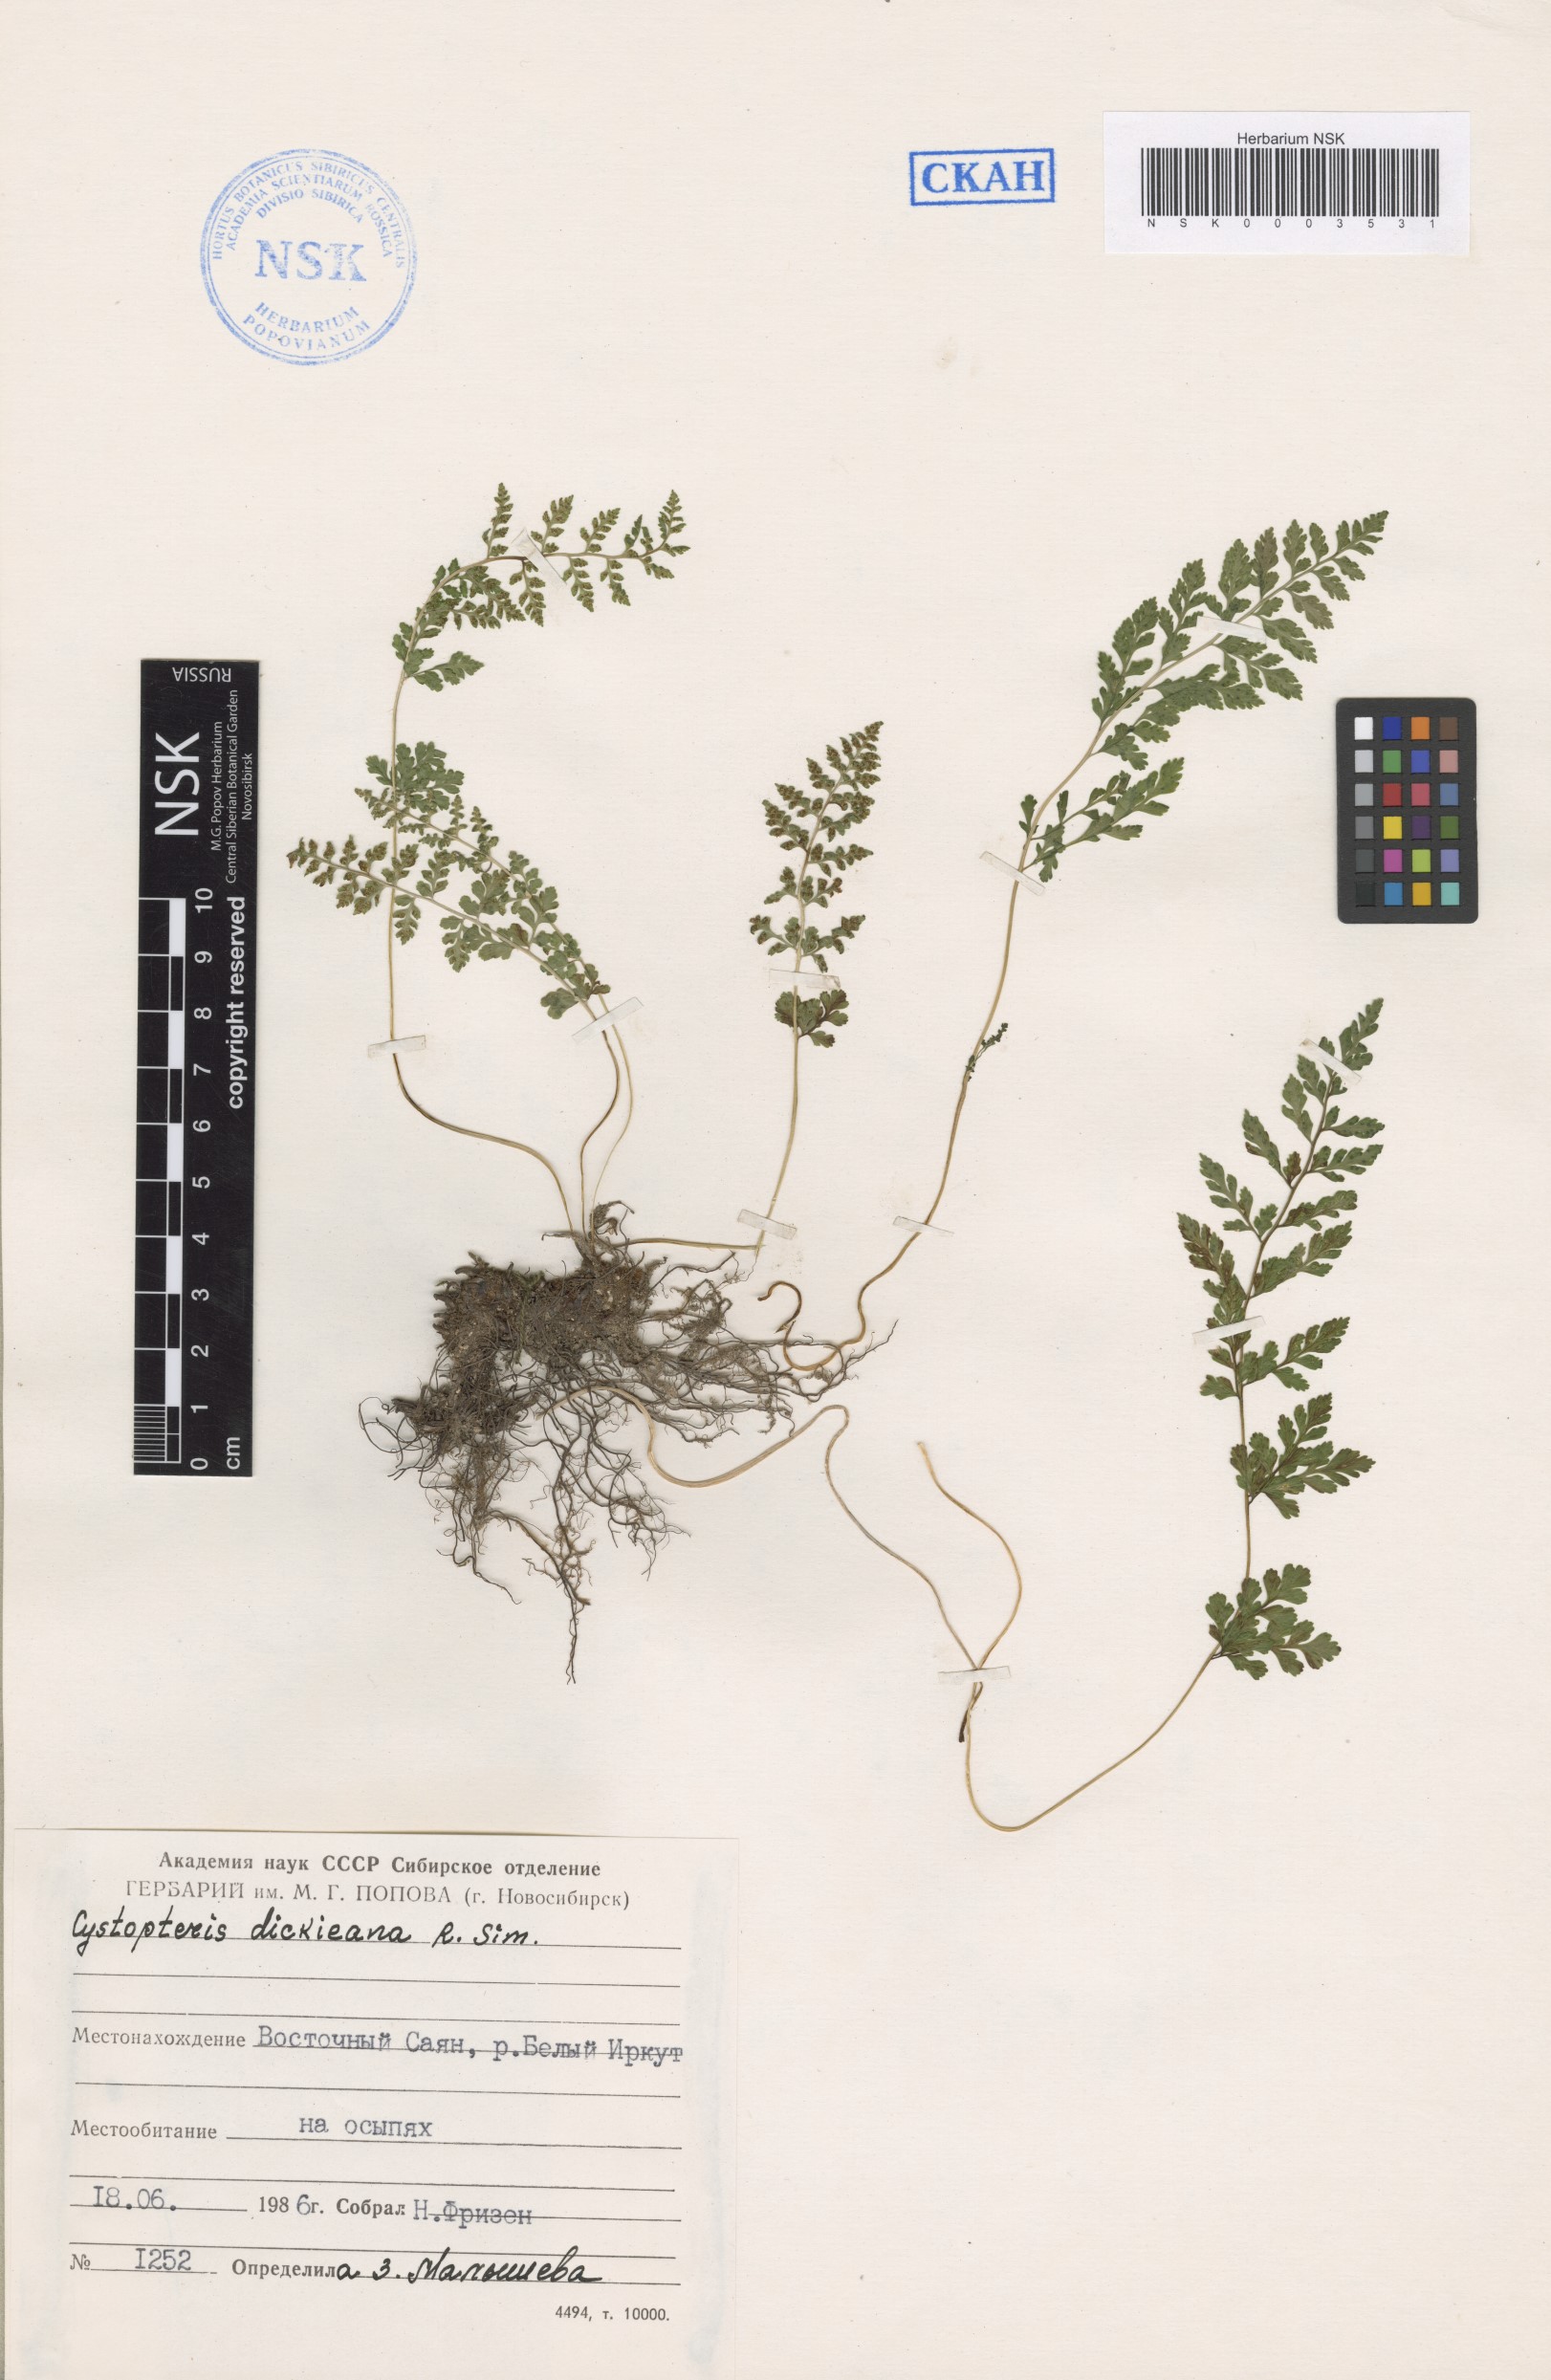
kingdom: Plantae
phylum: Tracheophyta
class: Polypodiopsida
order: Polypodiales
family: Cystopteridaceae
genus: Cystopteris
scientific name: Cystopteris dickieana
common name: Dickie's bladder-fern
